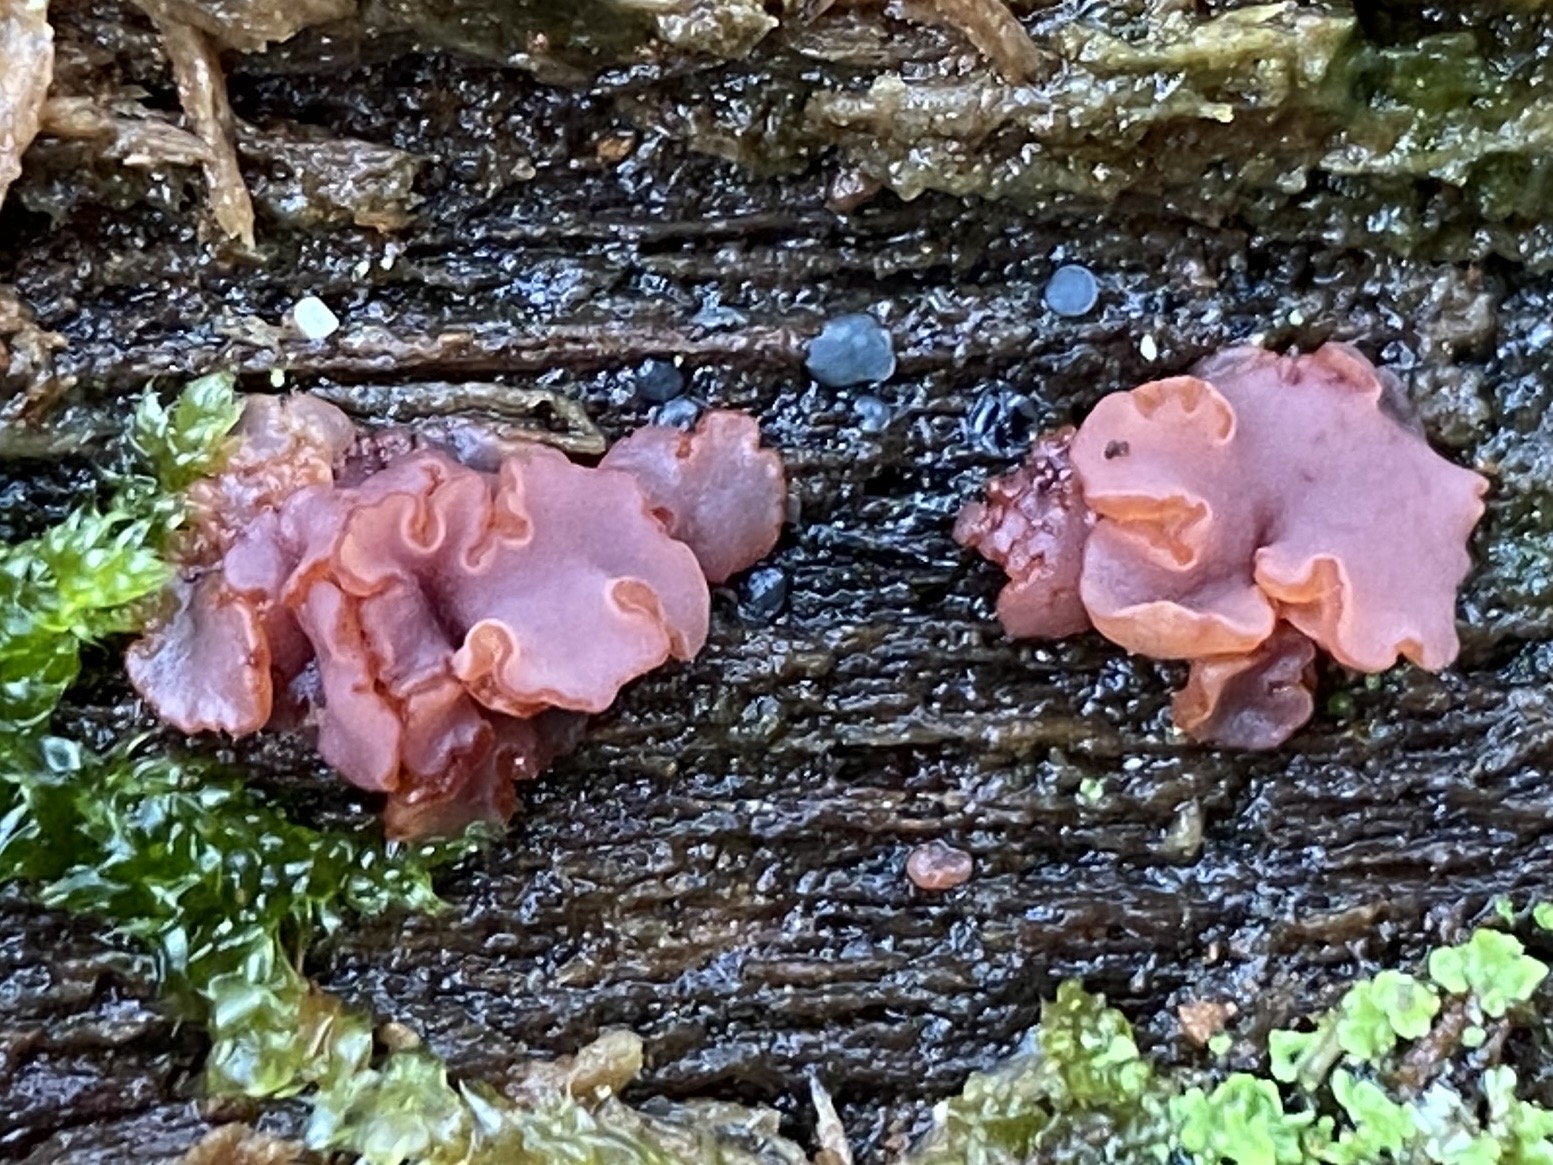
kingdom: Fungi
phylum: Ascomycota
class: Leotiomycetes
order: Helotiales
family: Gelatinodiscaceae
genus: Ascocoryne
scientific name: Ascocoryne
